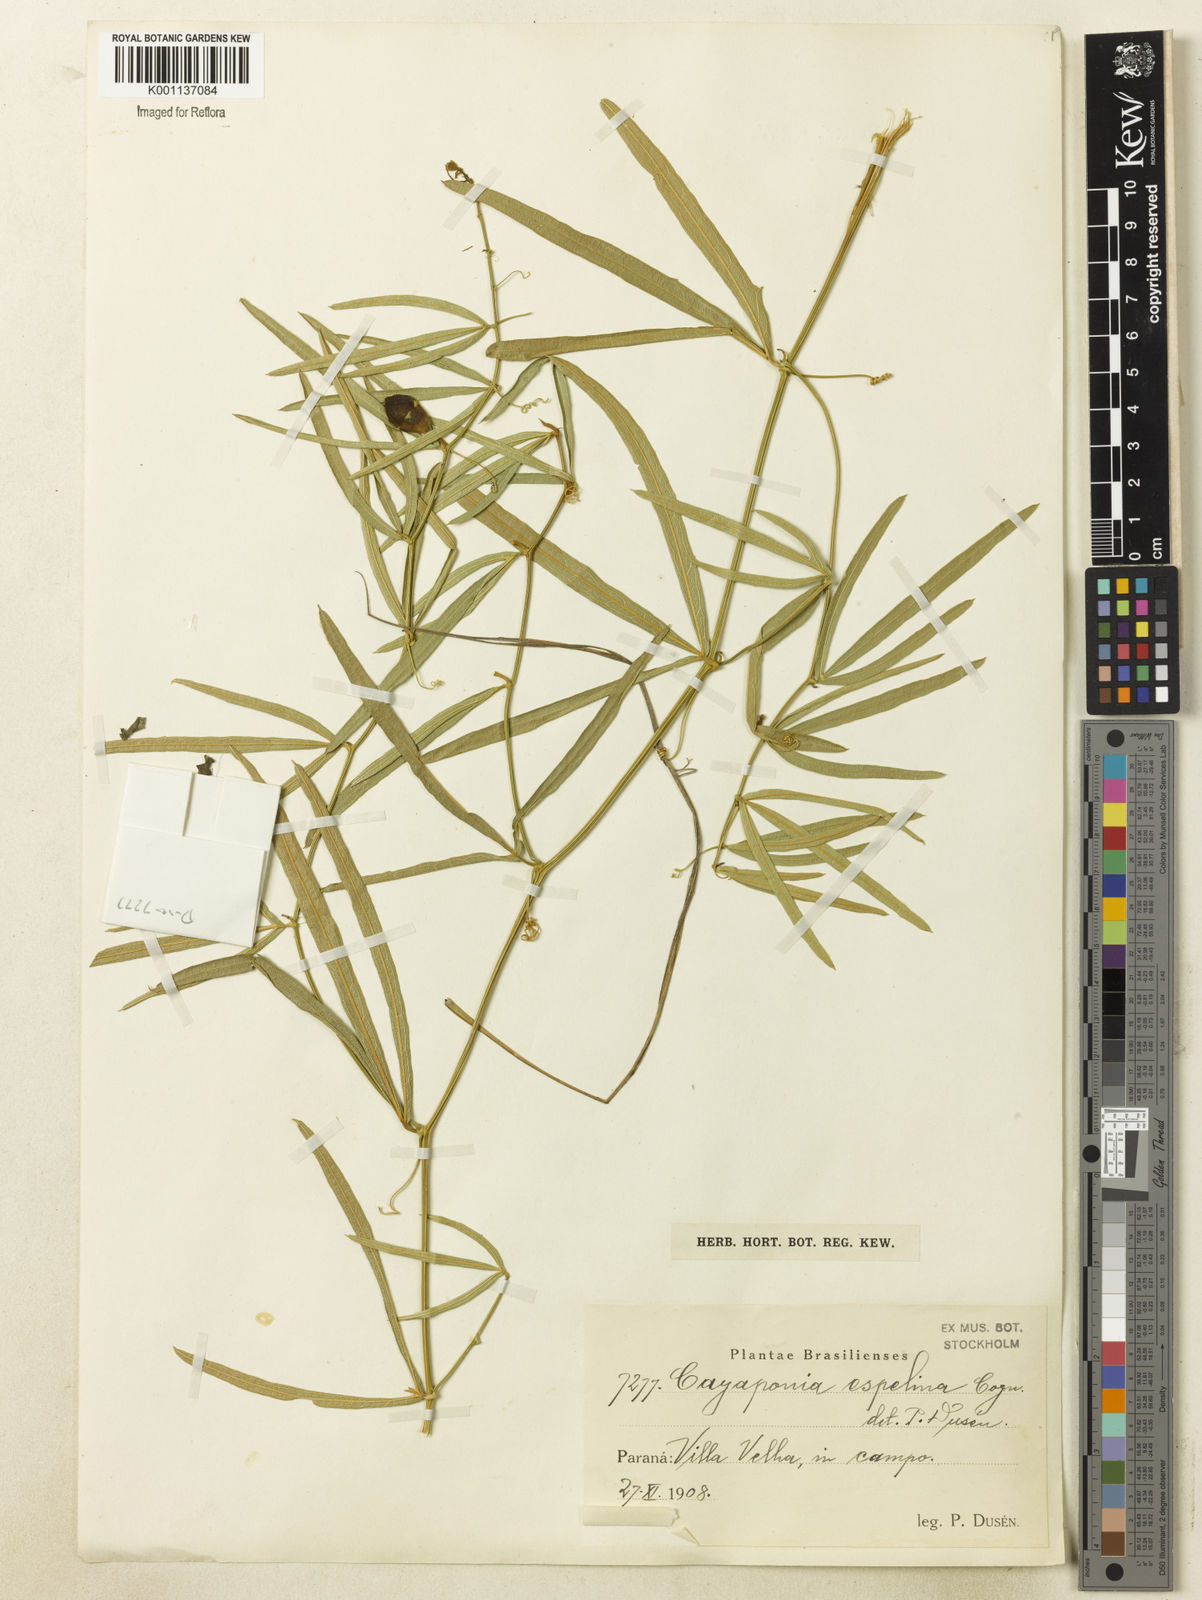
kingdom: Plantae
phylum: Tracheophyta
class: Magnoliopsida
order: Cucurbitales
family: Cucurbitaceae
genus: Cayaponia
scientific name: Cayaponia espelina
